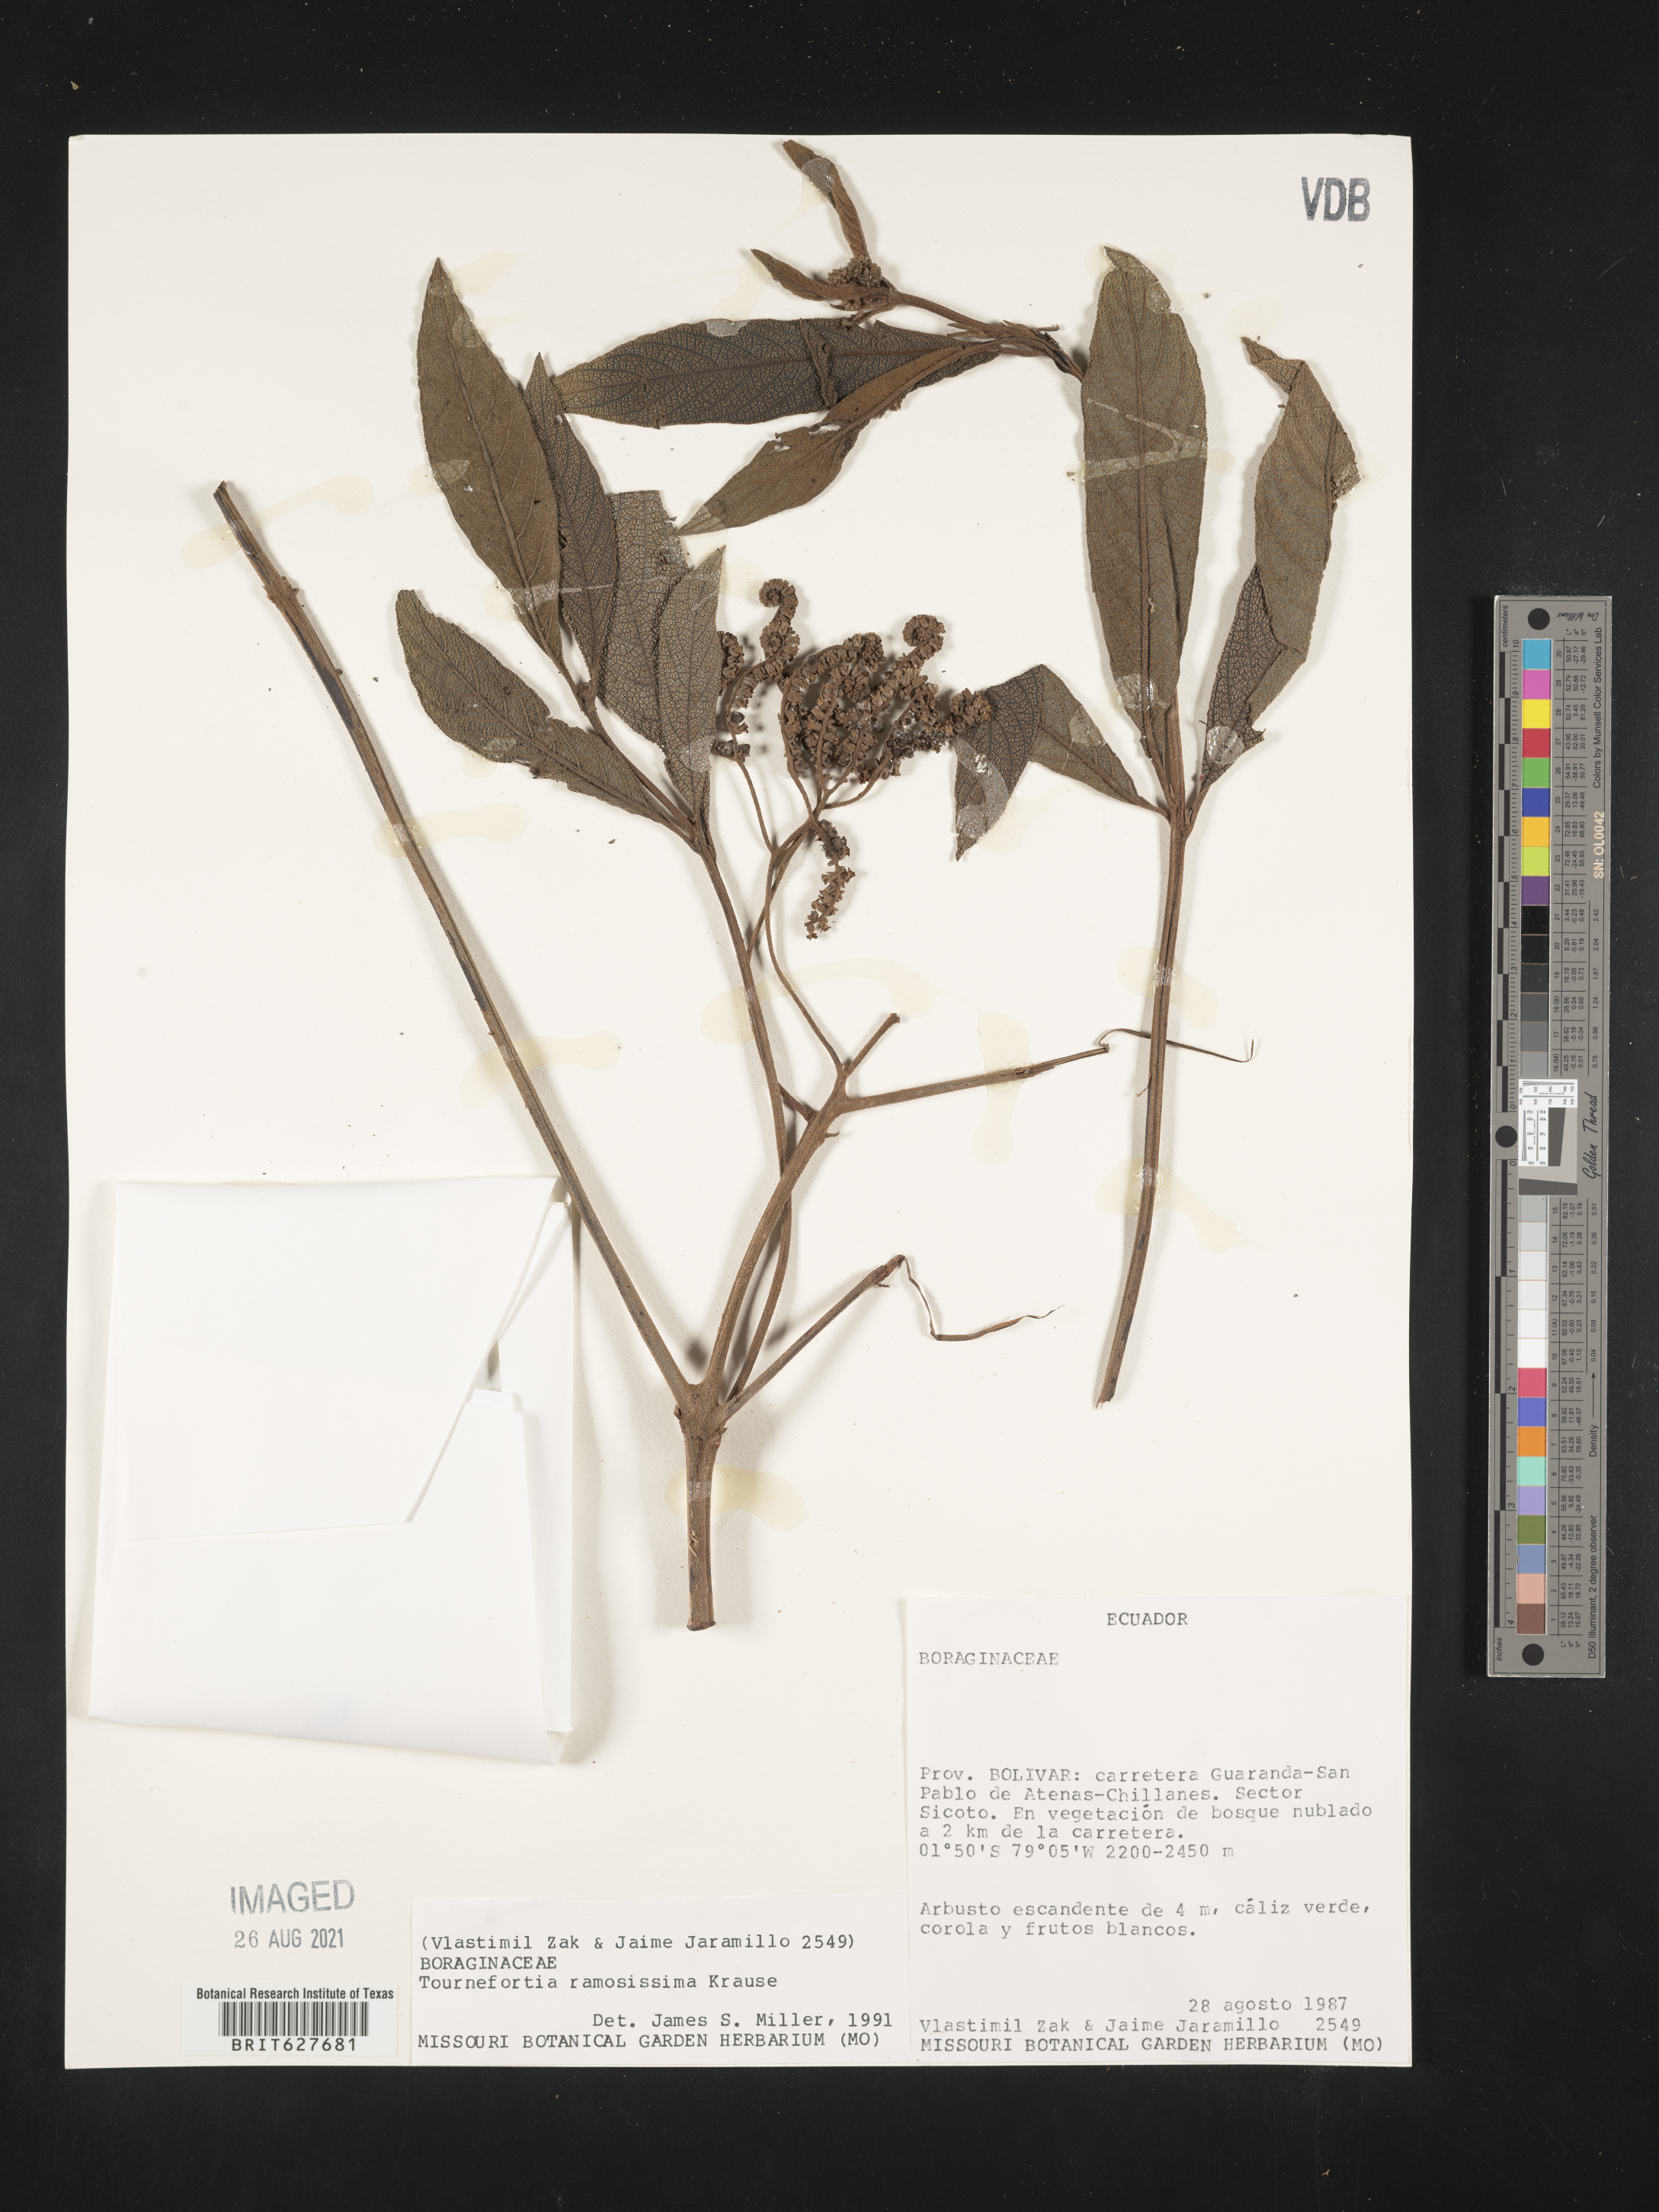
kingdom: Plantae
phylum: Tracheophyta
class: Magnoliopsida
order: Boraginales
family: Heliotropiaceae
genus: Tournefortia
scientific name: Tournefortia ramosissima
